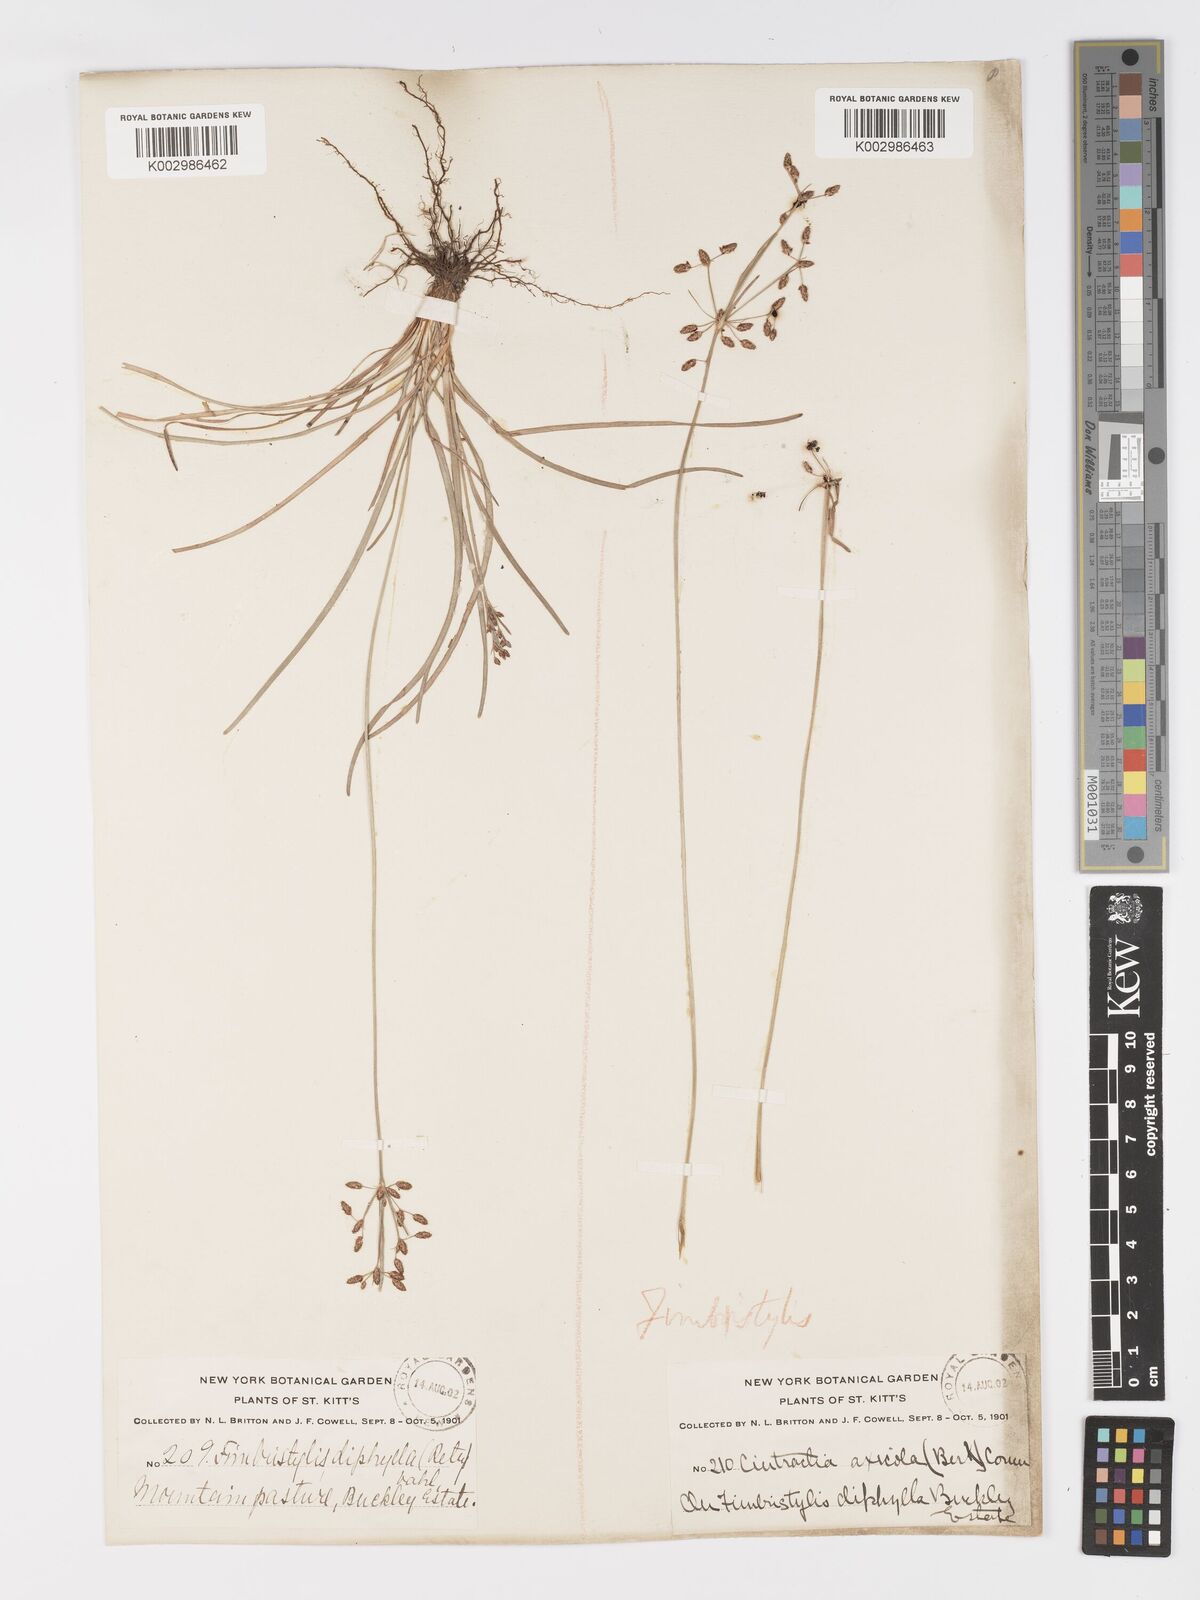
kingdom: Plantae
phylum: Tracheophyta
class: Liliopsida
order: Poales
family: Cyperaceae
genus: Fimbristylis
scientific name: Fimbristylis dichotoma
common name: Forked fimbry
